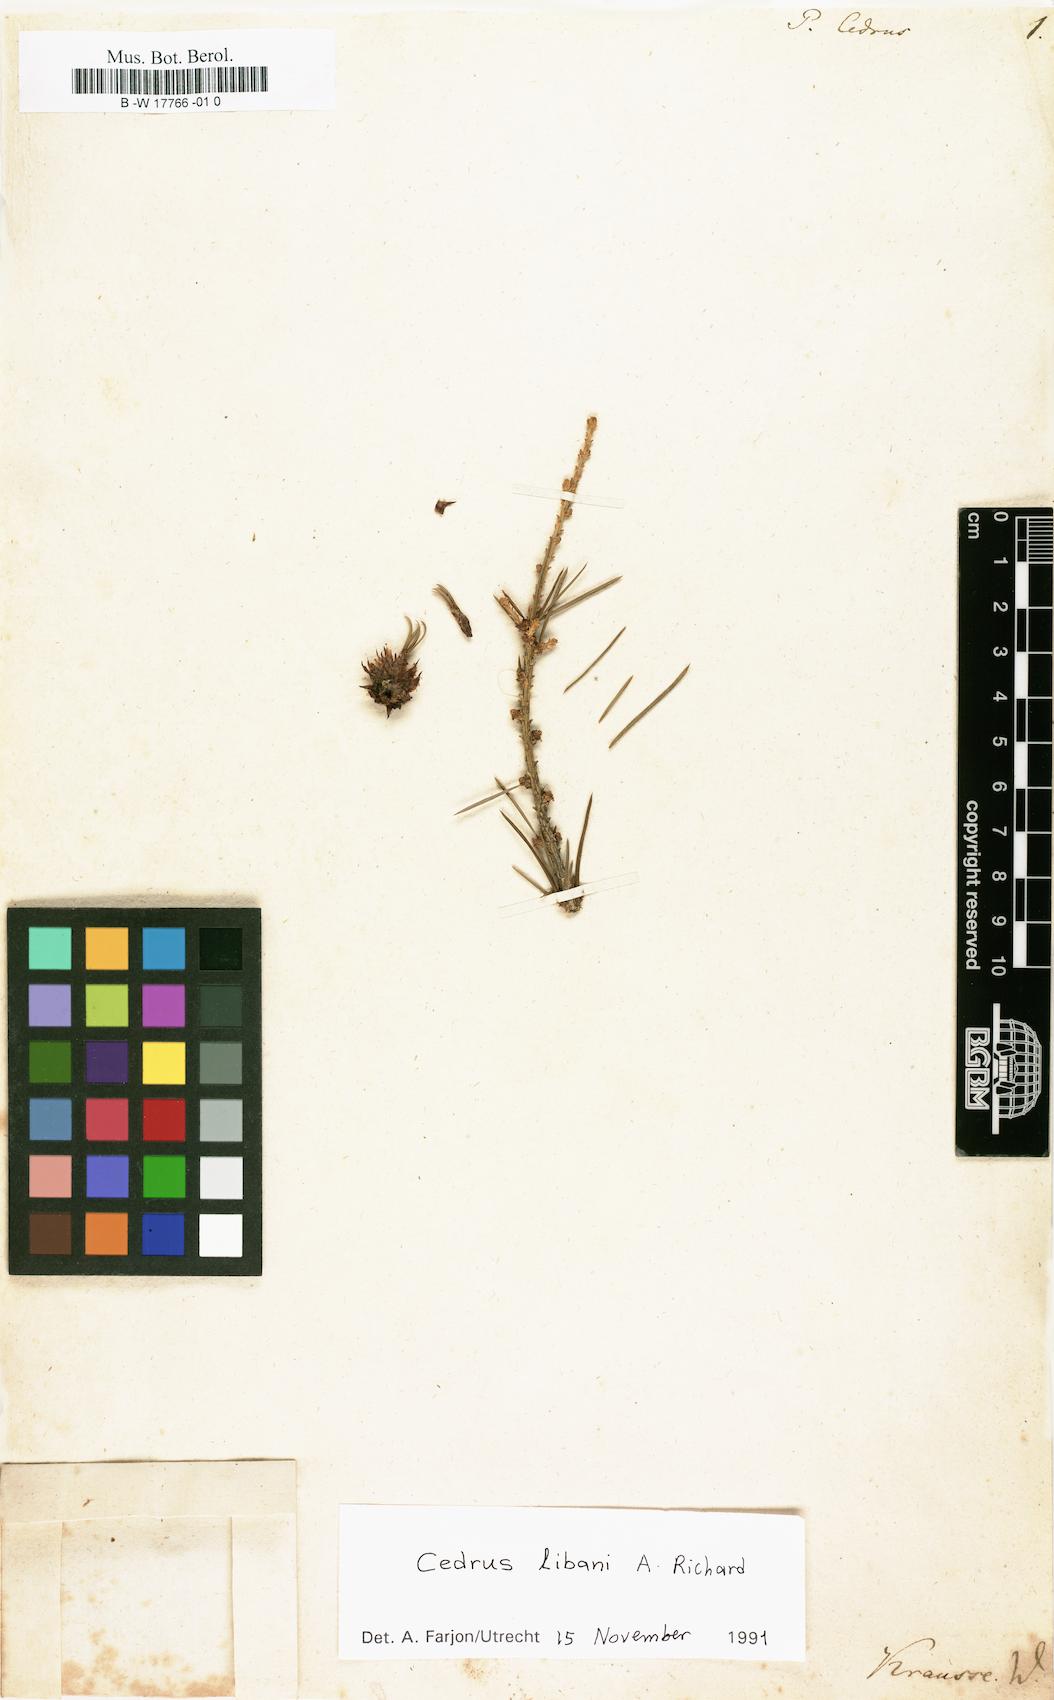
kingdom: Plantae
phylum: Tracheophyta
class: Pinopsida
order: Pinales
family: Pinaceae
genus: Cedrus
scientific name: Cedrus libani
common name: Cedar-of-lebanon
